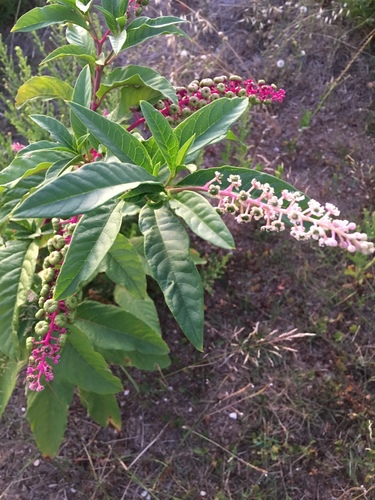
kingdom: Plantae
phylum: Tracheophyta
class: Magnoliopsida
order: Caryophyllales
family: Phytolaccaceae
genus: Phytolacca
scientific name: Phytolacca americana
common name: American pokeweed
